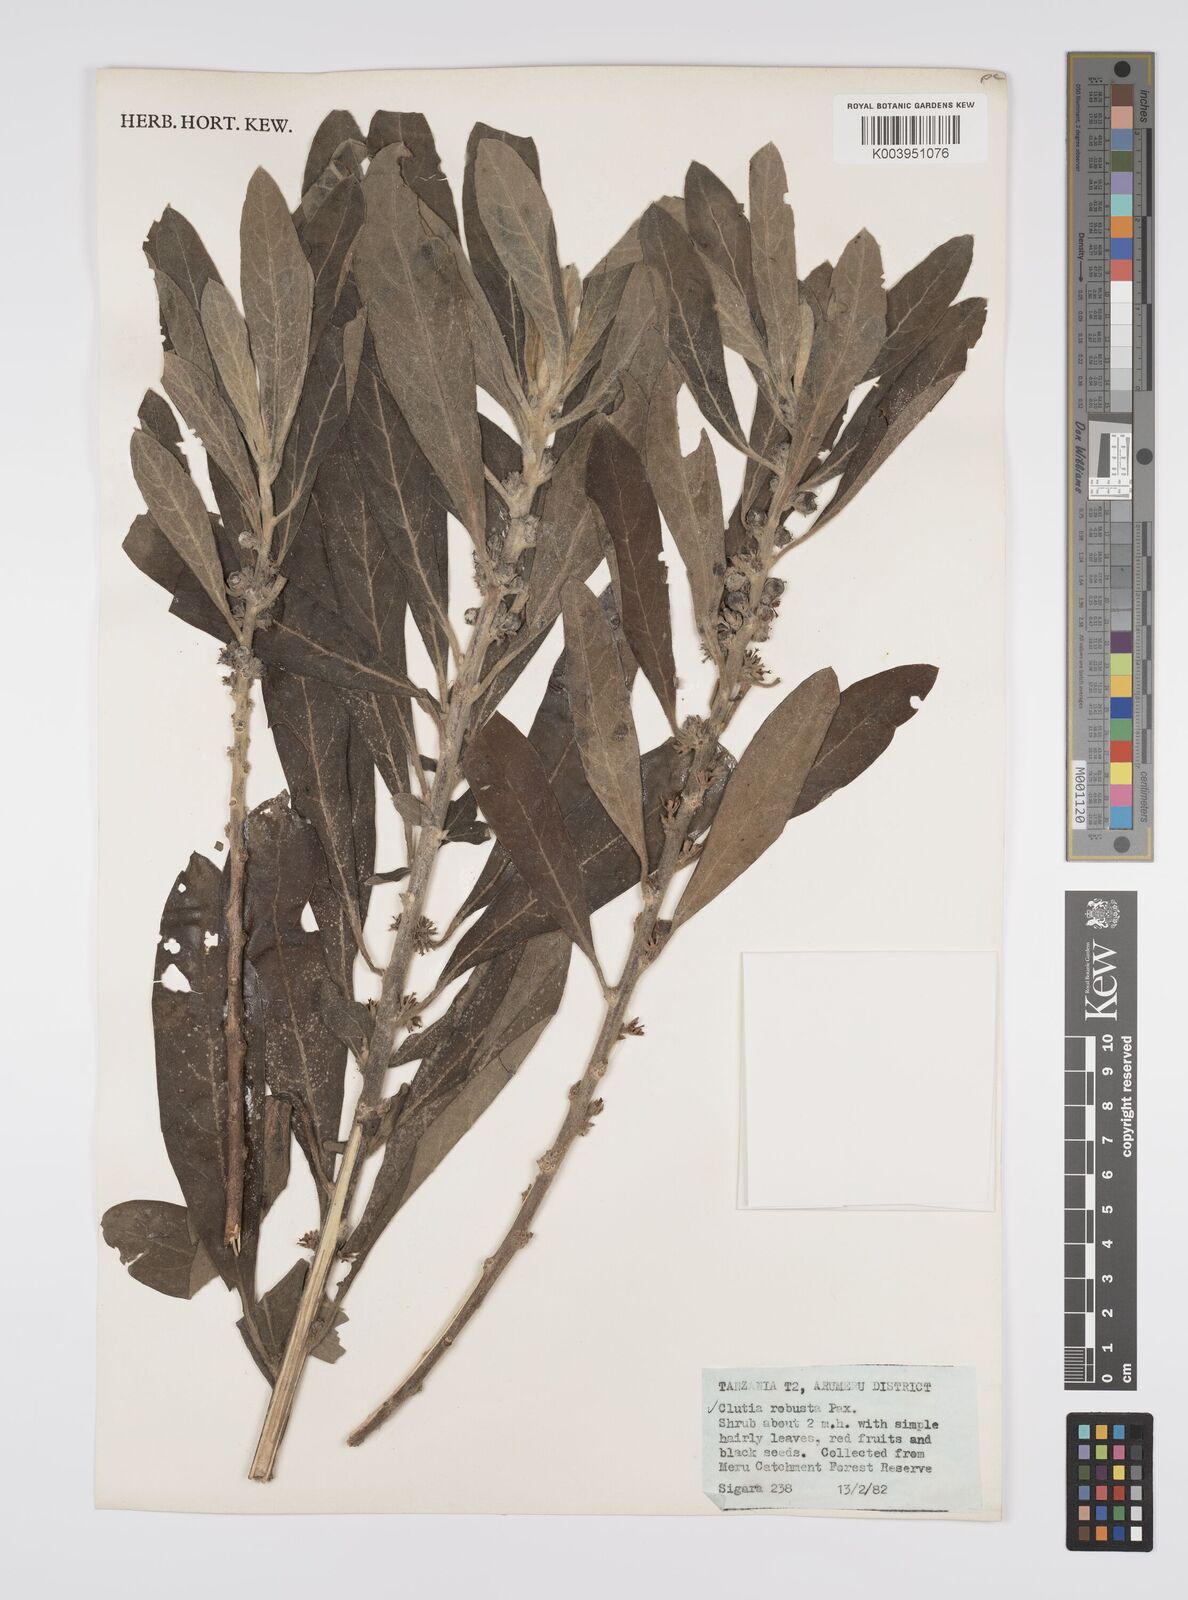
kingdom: Plantae
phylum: Tracheophyta
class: Magnoliopsida
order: Malpighiales
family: Peraceae
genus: Clutia
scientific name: Clutia kilimandscharica
